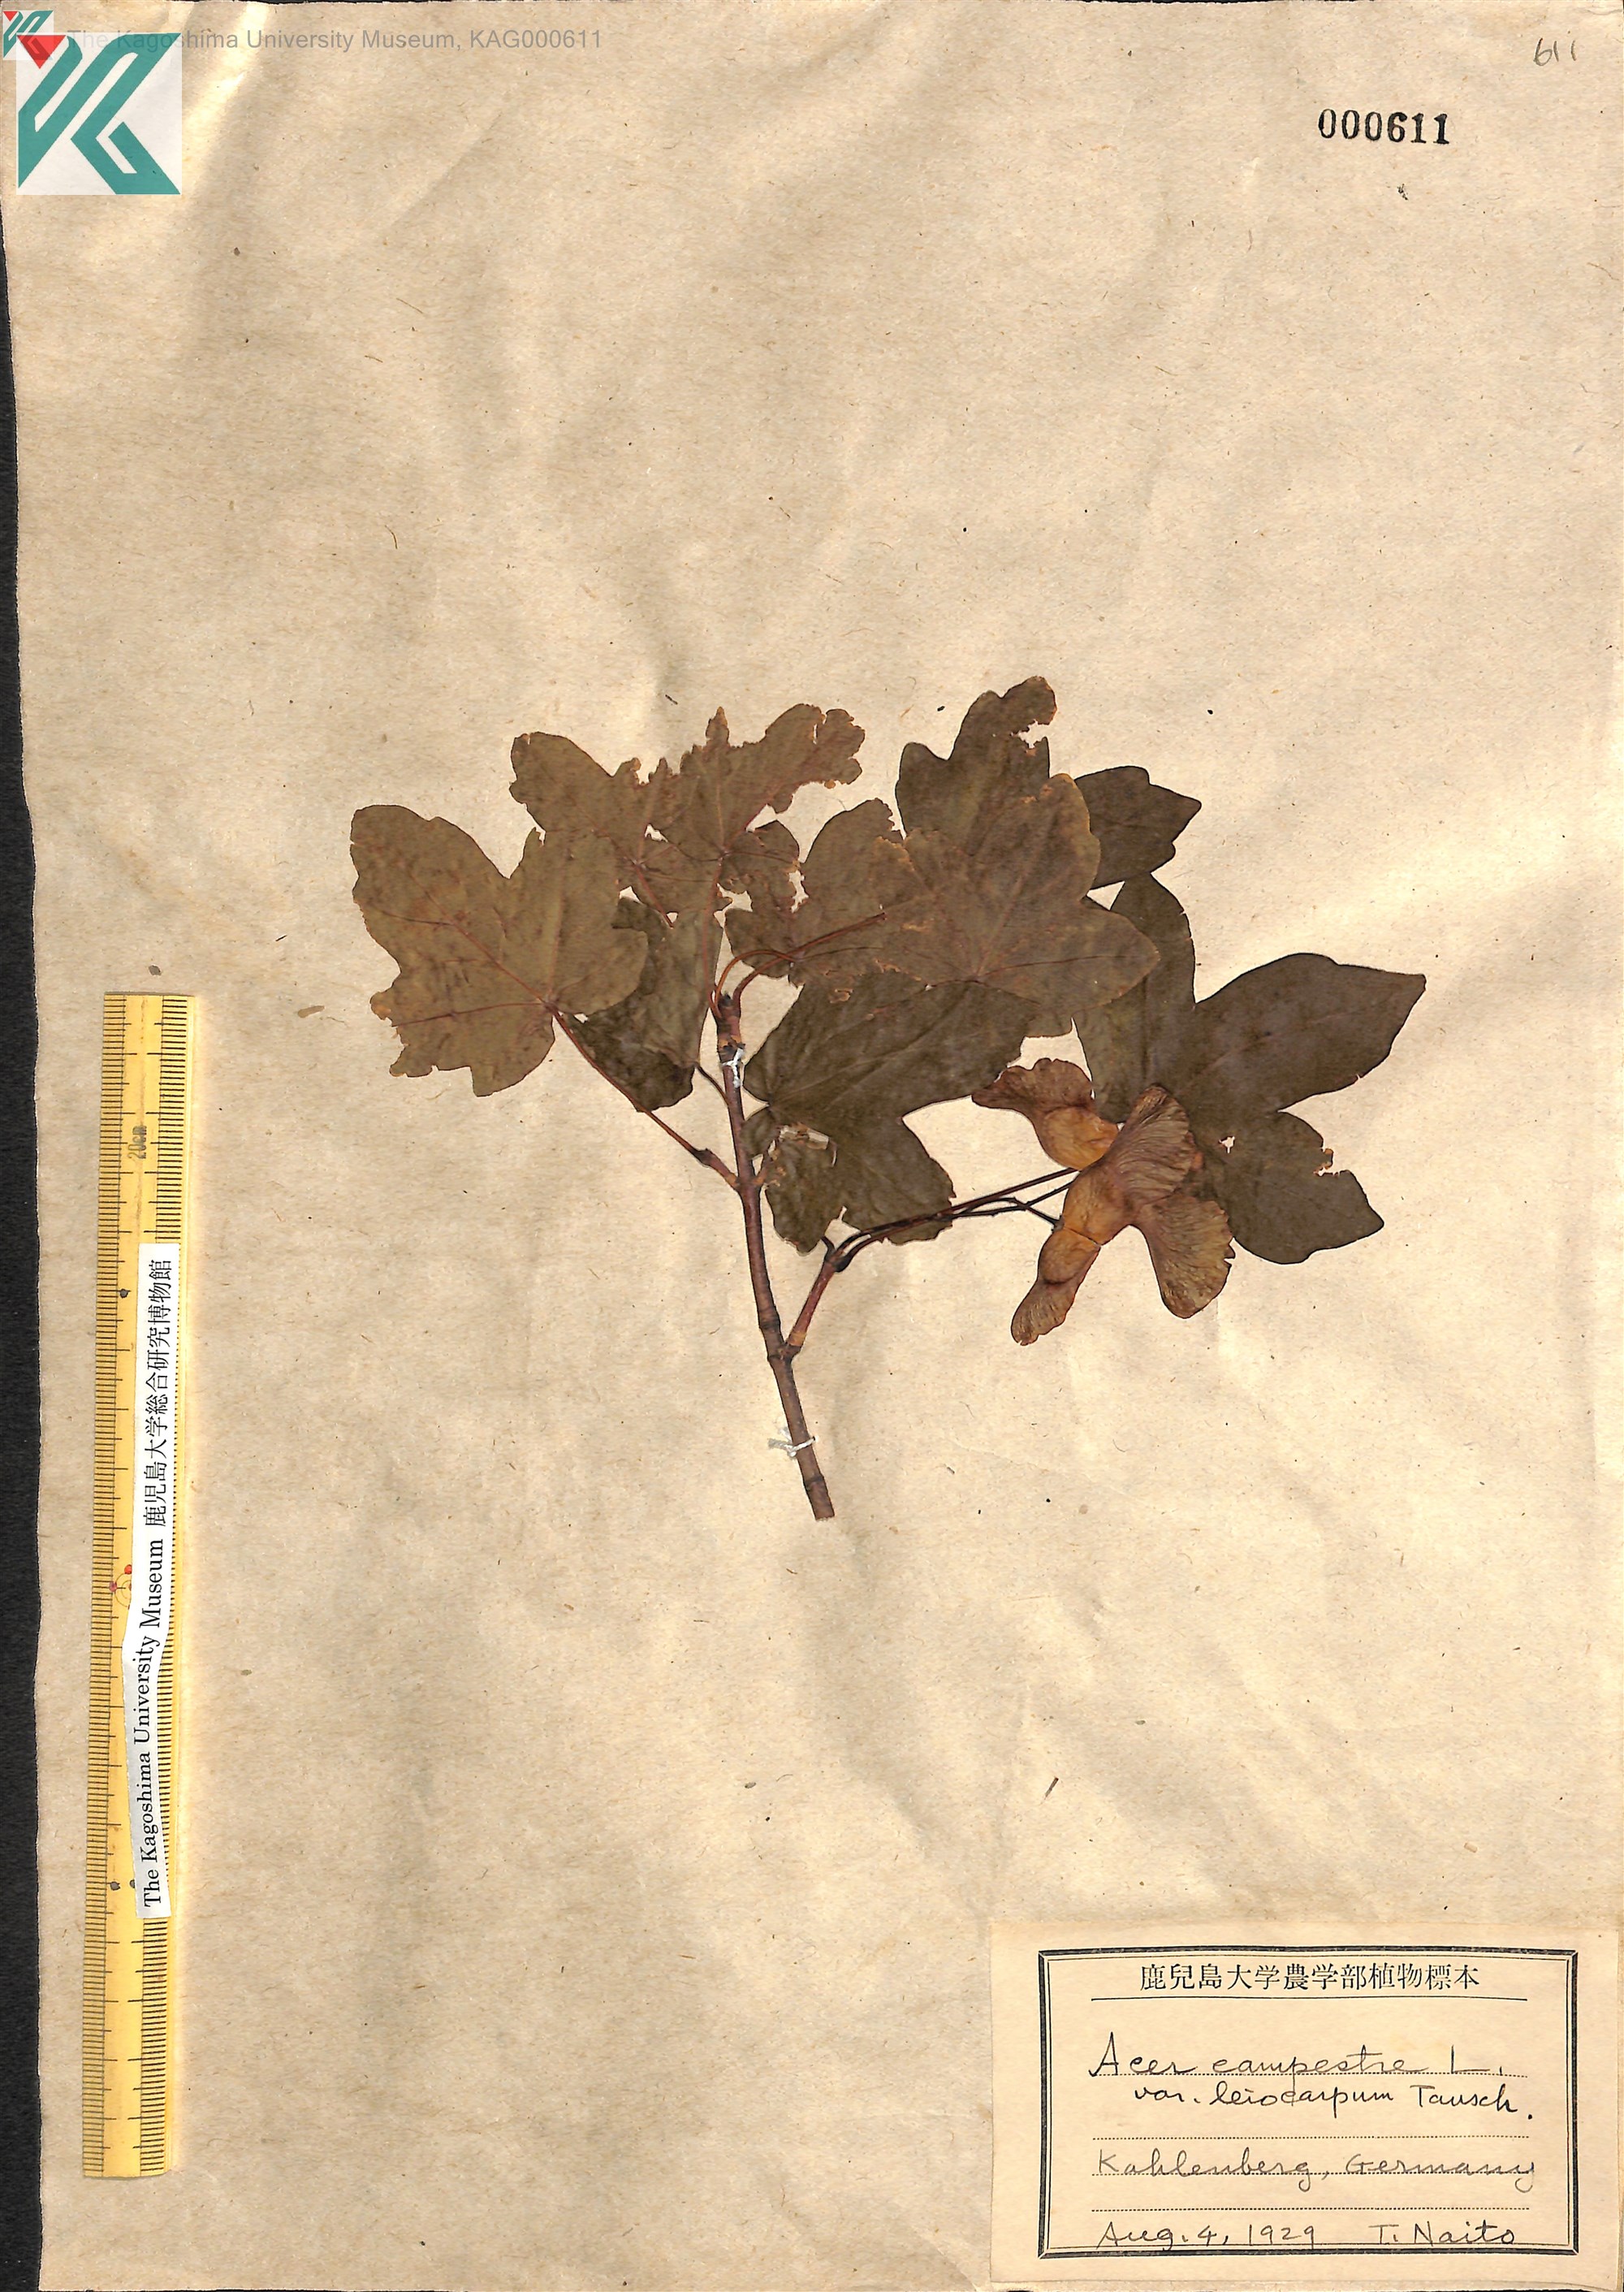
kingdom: Plantae
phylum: Tracheophyta
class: Magnoliopsida
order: Sapindales
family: Sapindaceae
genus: Acer
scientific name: Acer campestre
